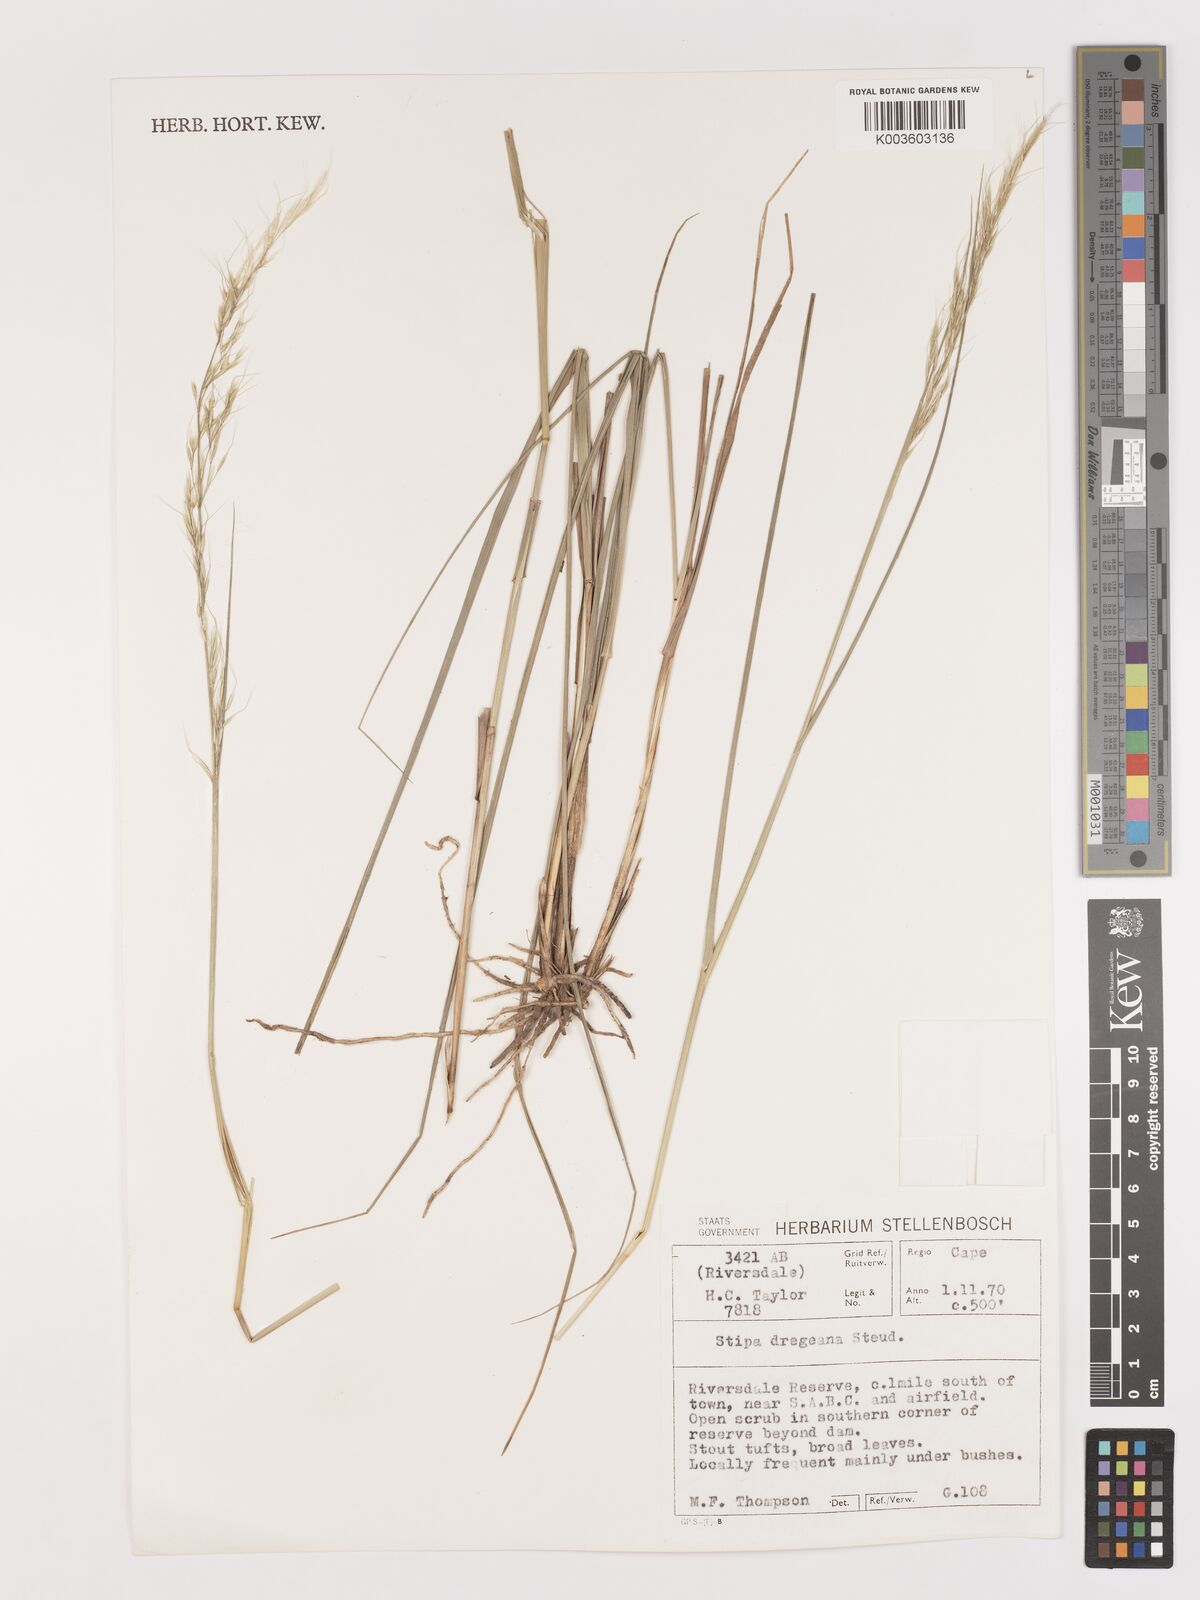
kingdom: Plantae
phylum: Tracheophyta
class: Liliopsida
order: Poales
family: Poaceae
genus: Stipa
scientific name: Stipa dregeana
